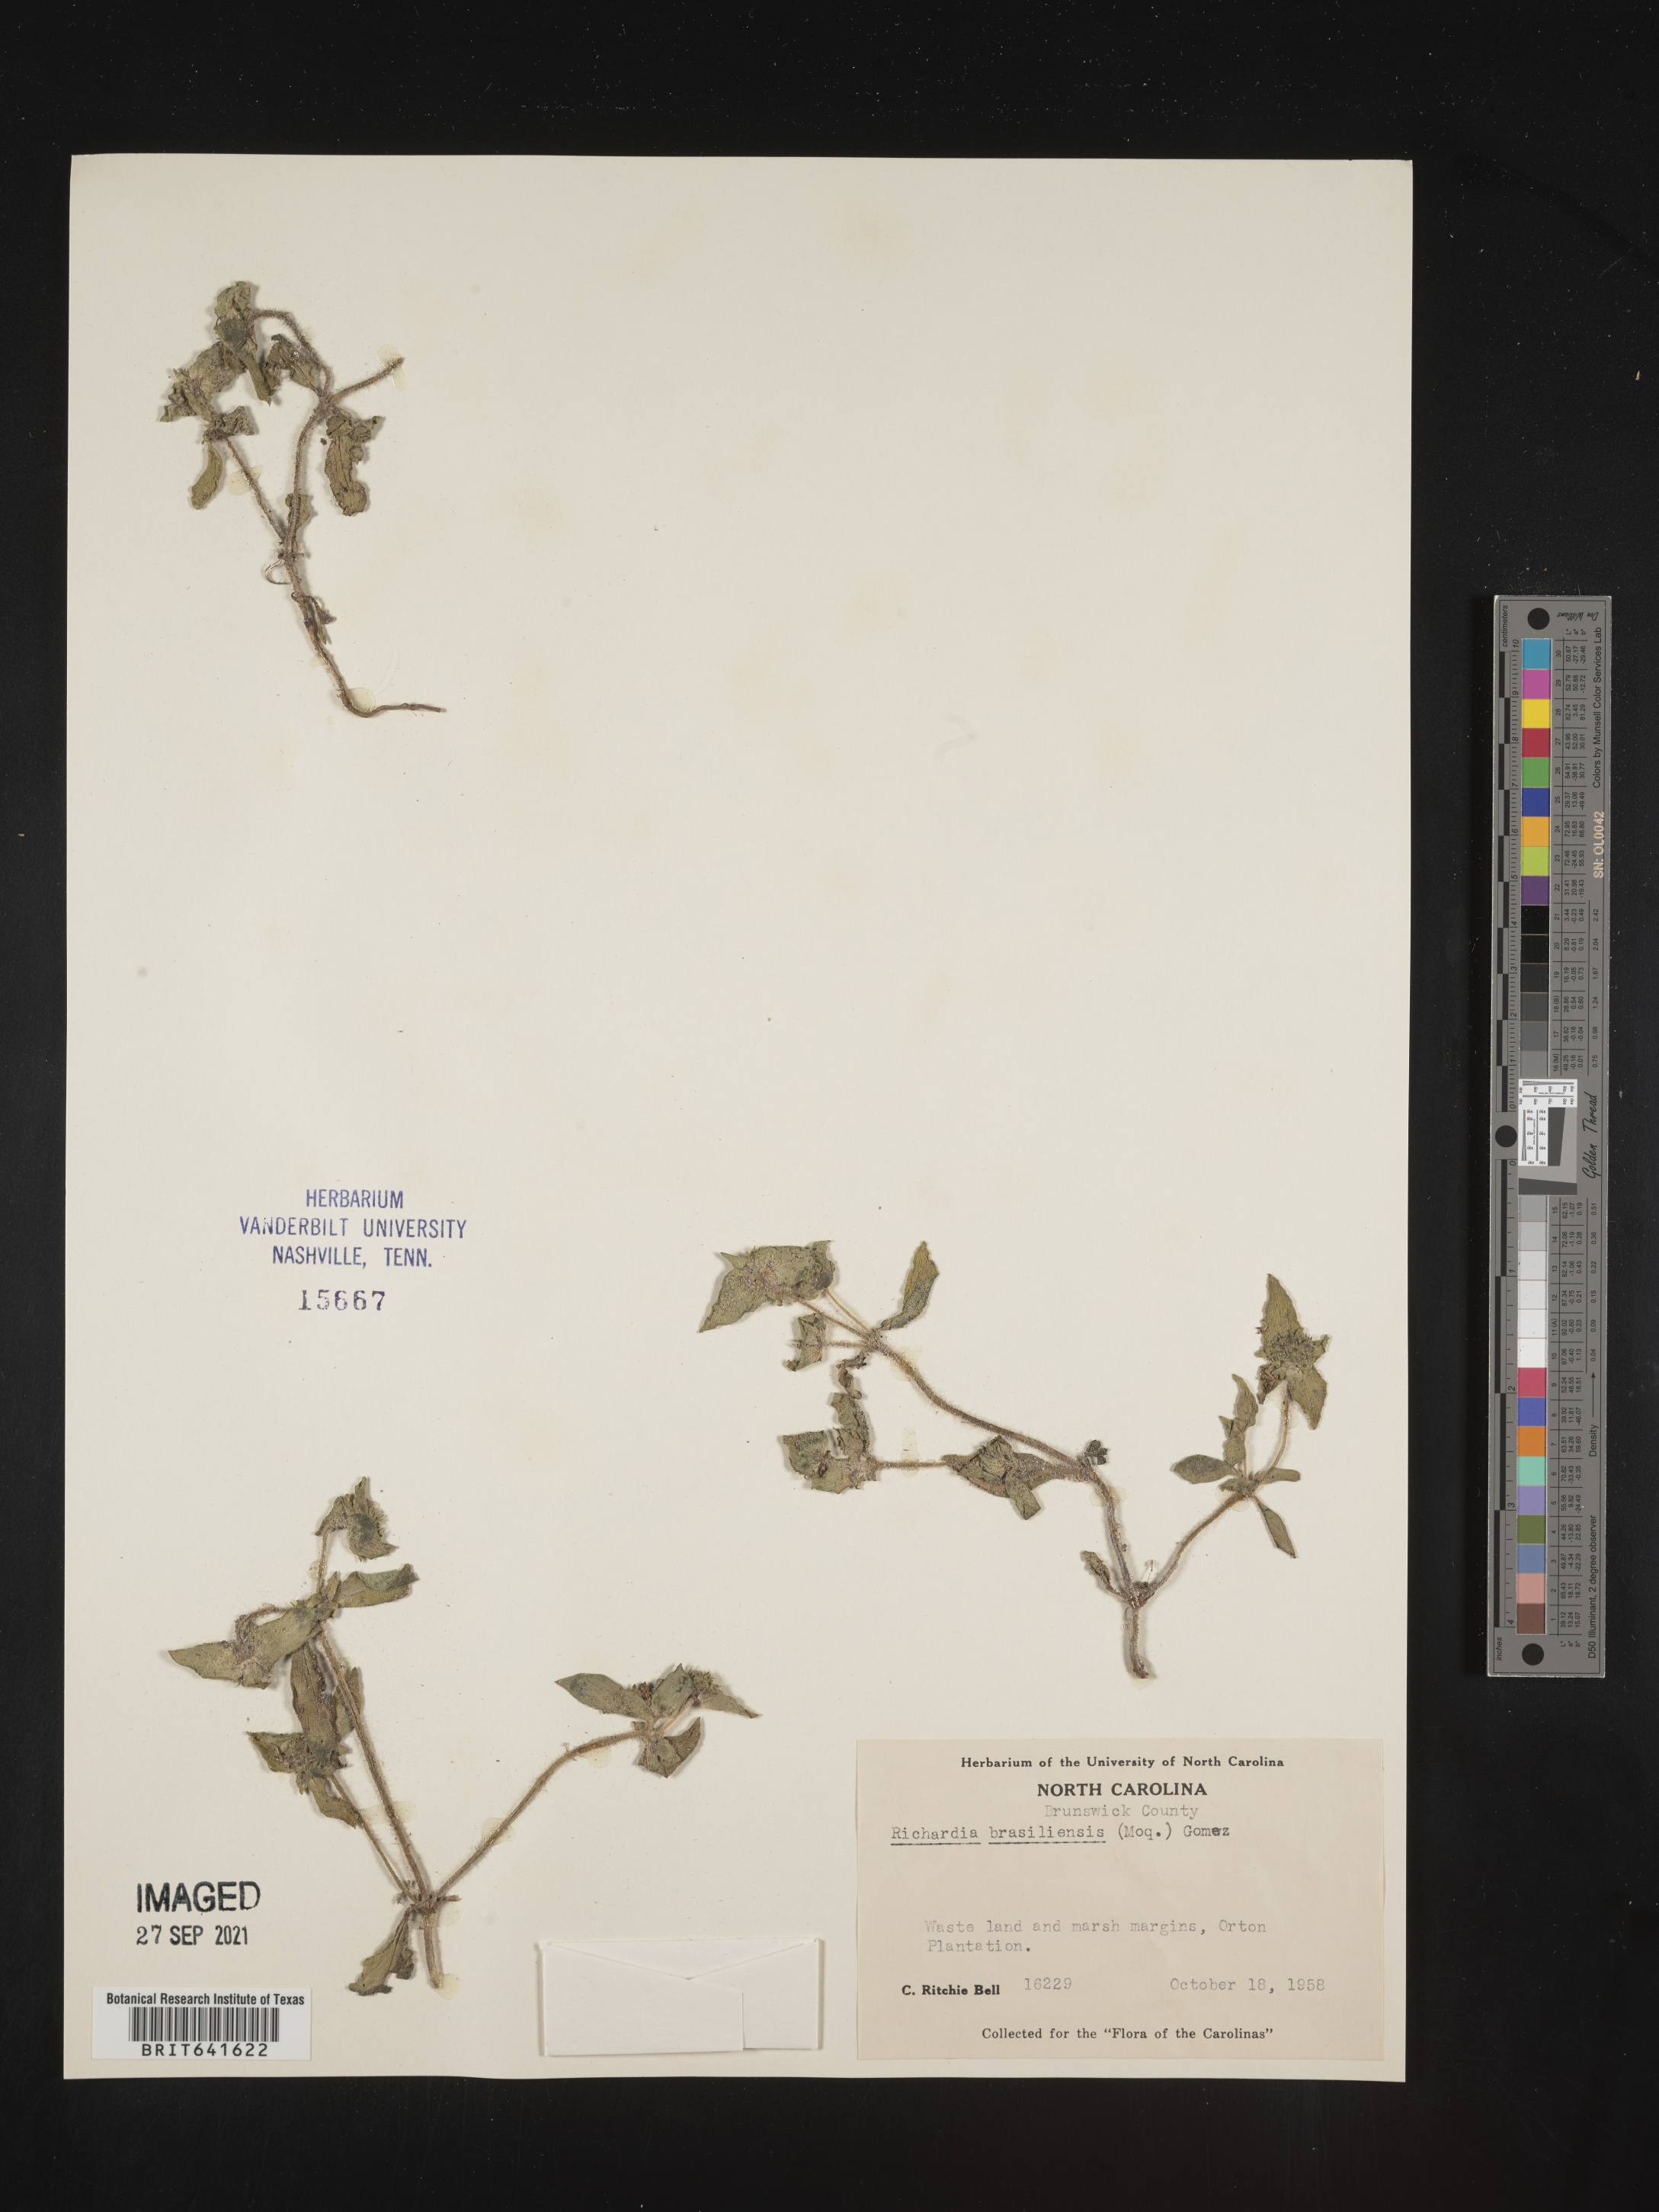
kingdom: Plantae
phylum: Tracheophyta
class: Magnoliopsida
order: Gentianales
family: Rubiaceae
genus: Richardia
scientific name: Richardia brasiliensis
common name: Tropical mexican clover
